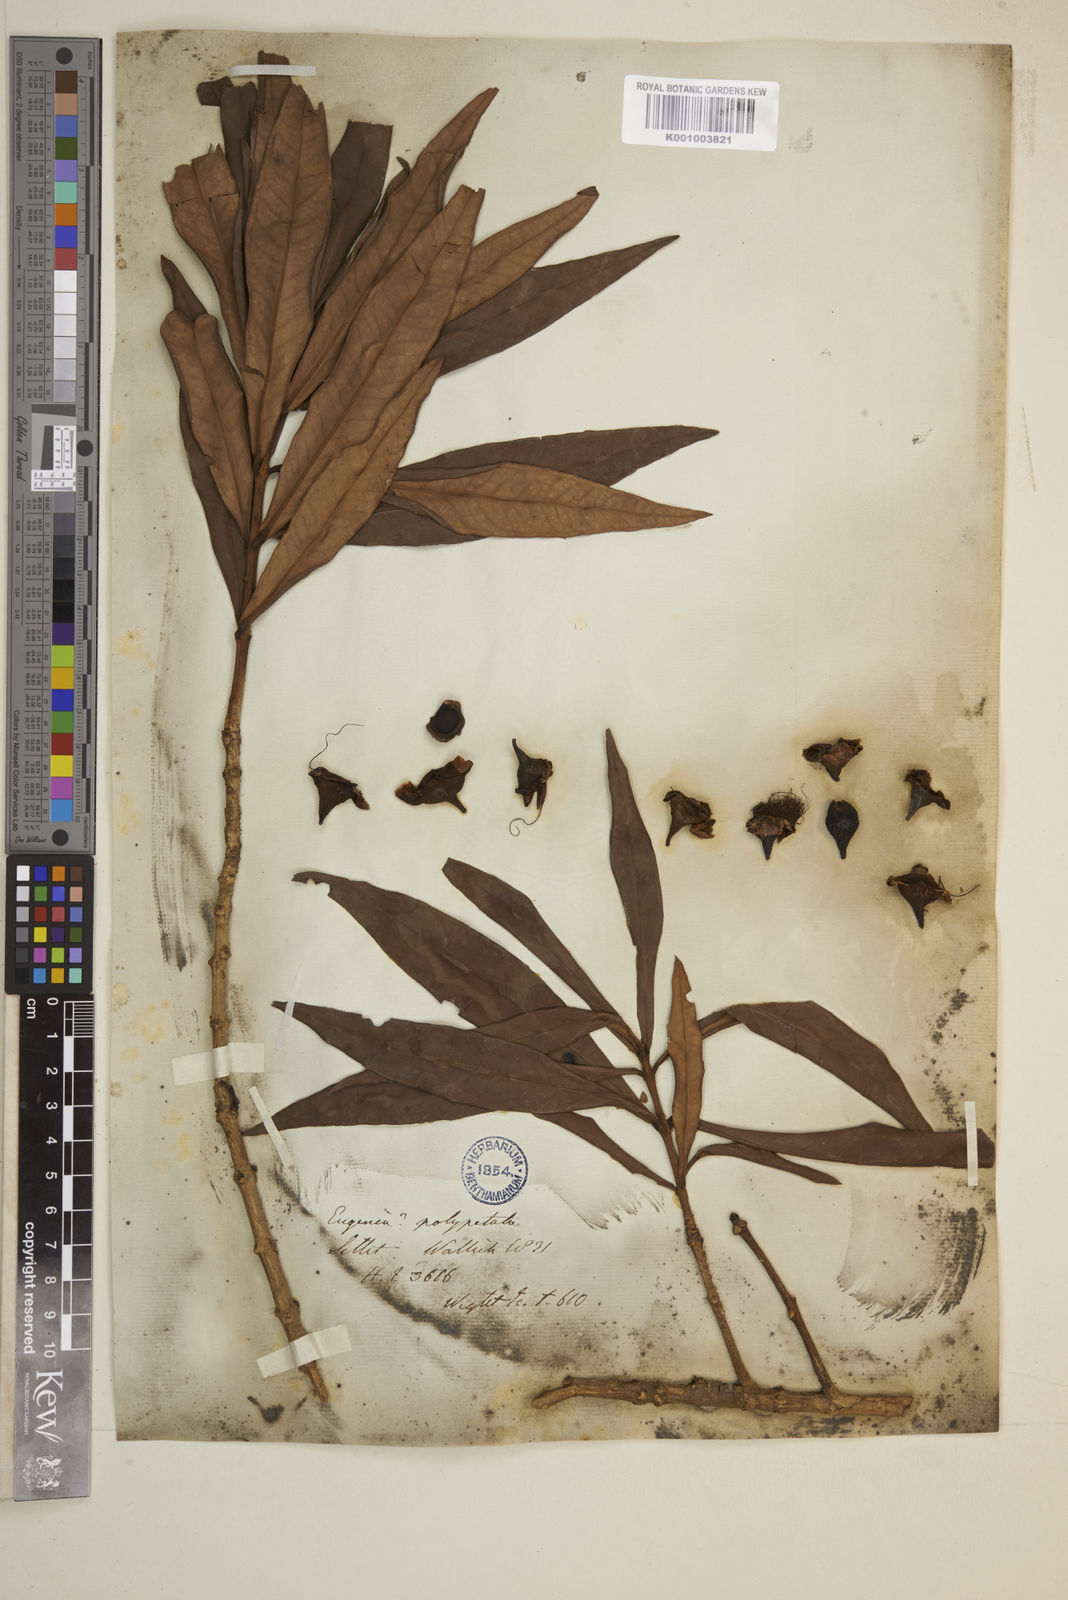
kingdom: Plantae
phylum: Tracheophyta
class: Magnoliopsida
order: Solanales
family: Solanaceae
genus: Cestrum
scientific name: Cestrum corymbosum
